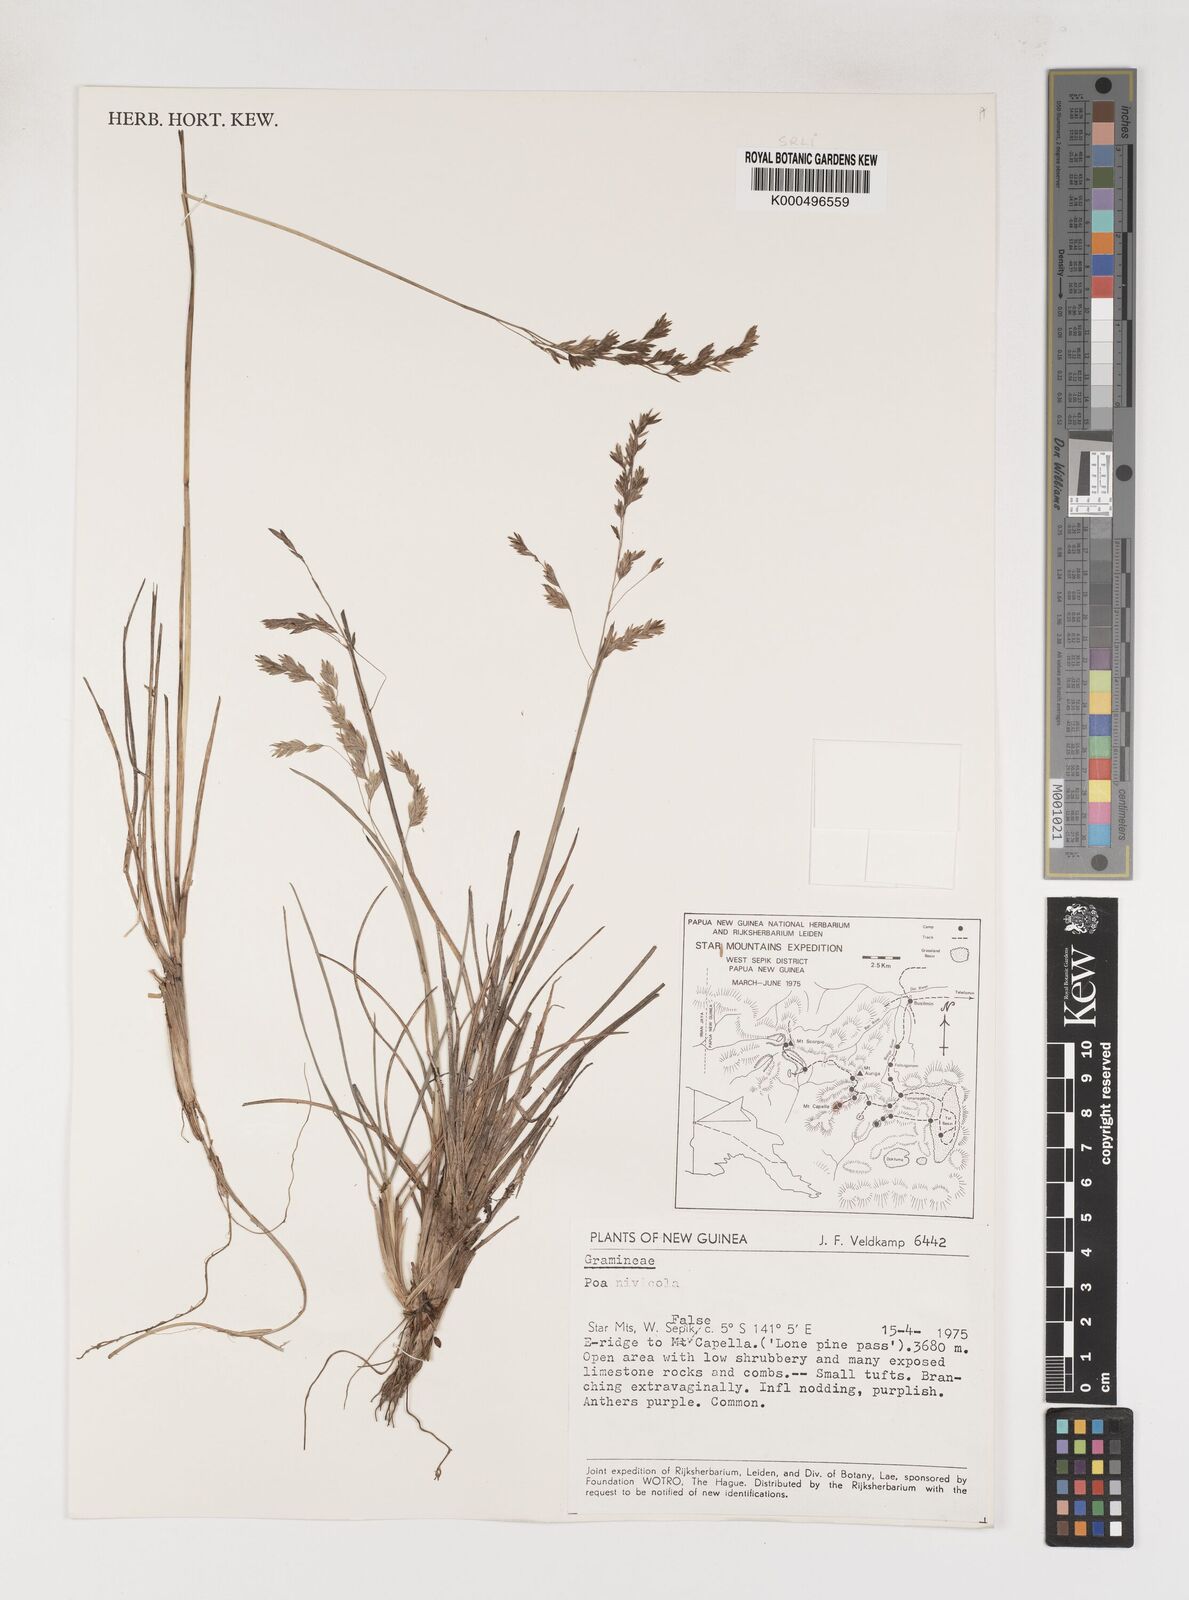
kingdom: Plantae
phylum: Tracheophyta
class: Liliopsida
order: Poales
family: Poaceae
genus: Poa
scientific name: Poa
